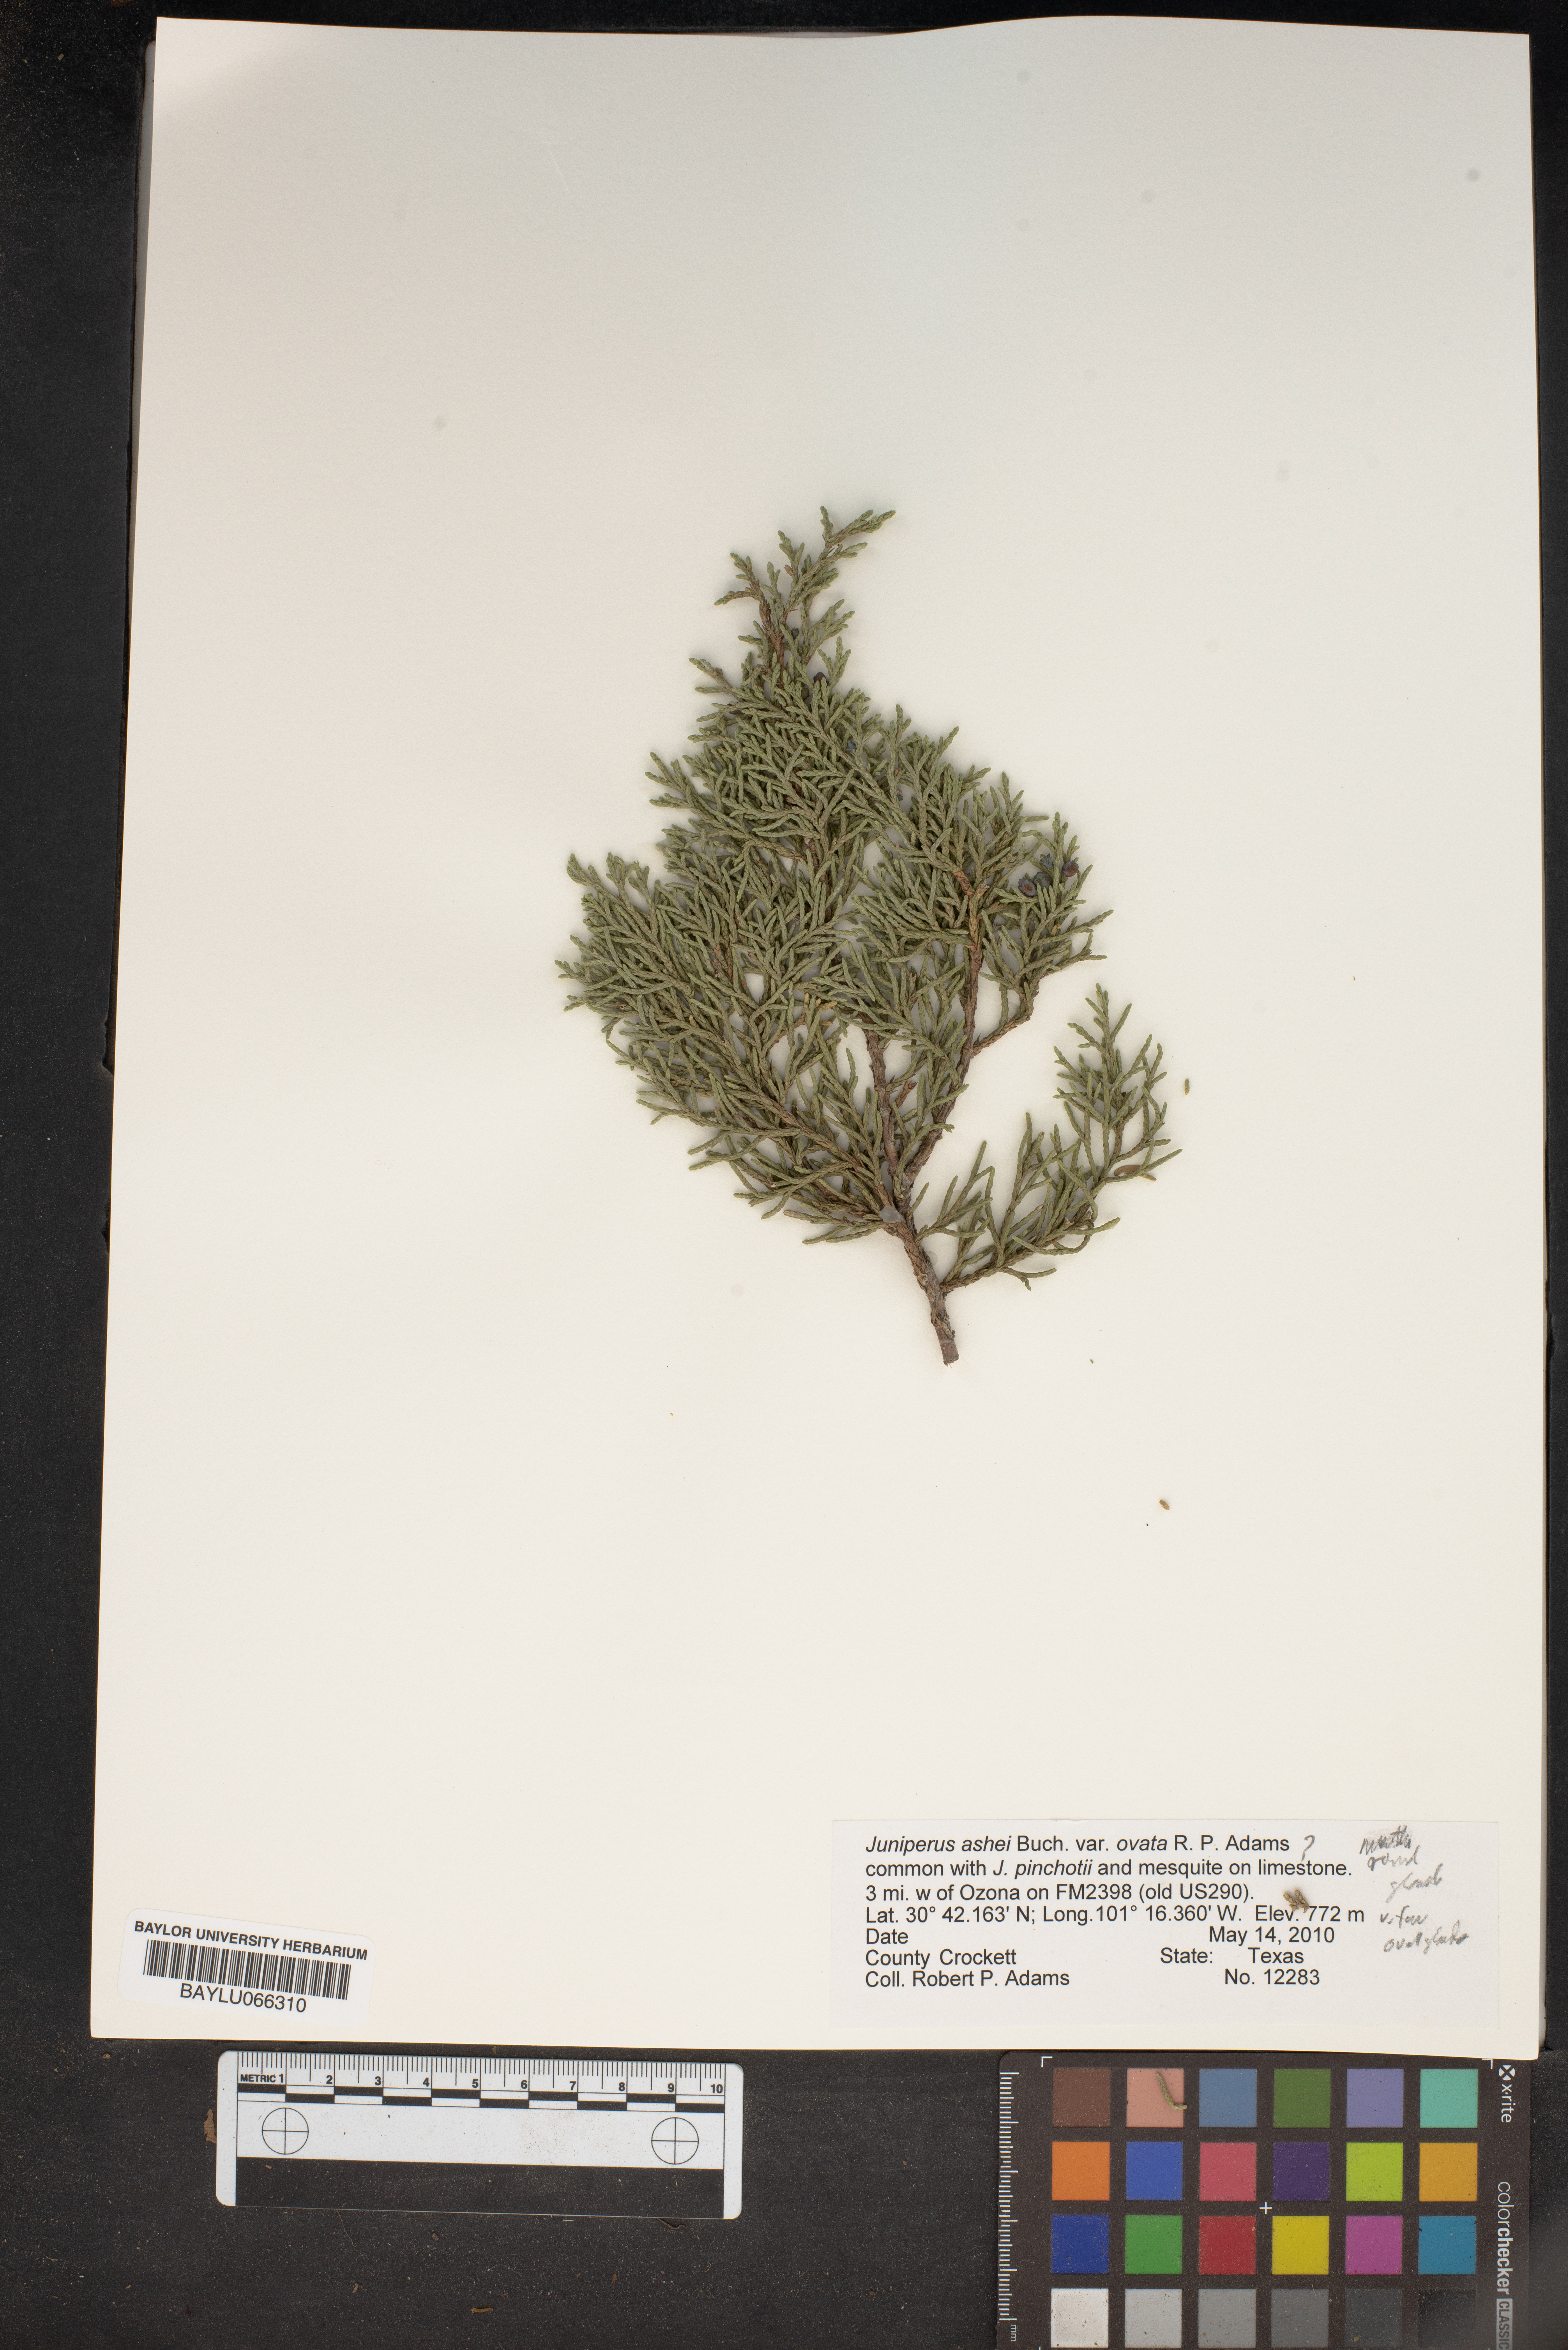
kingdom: Plantae
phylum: Tracheophyta
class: Pinopsida
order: Pinales
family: Cupressaceae
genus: Juniperus
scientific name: Juniperus ashei
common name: Mexican juniper
